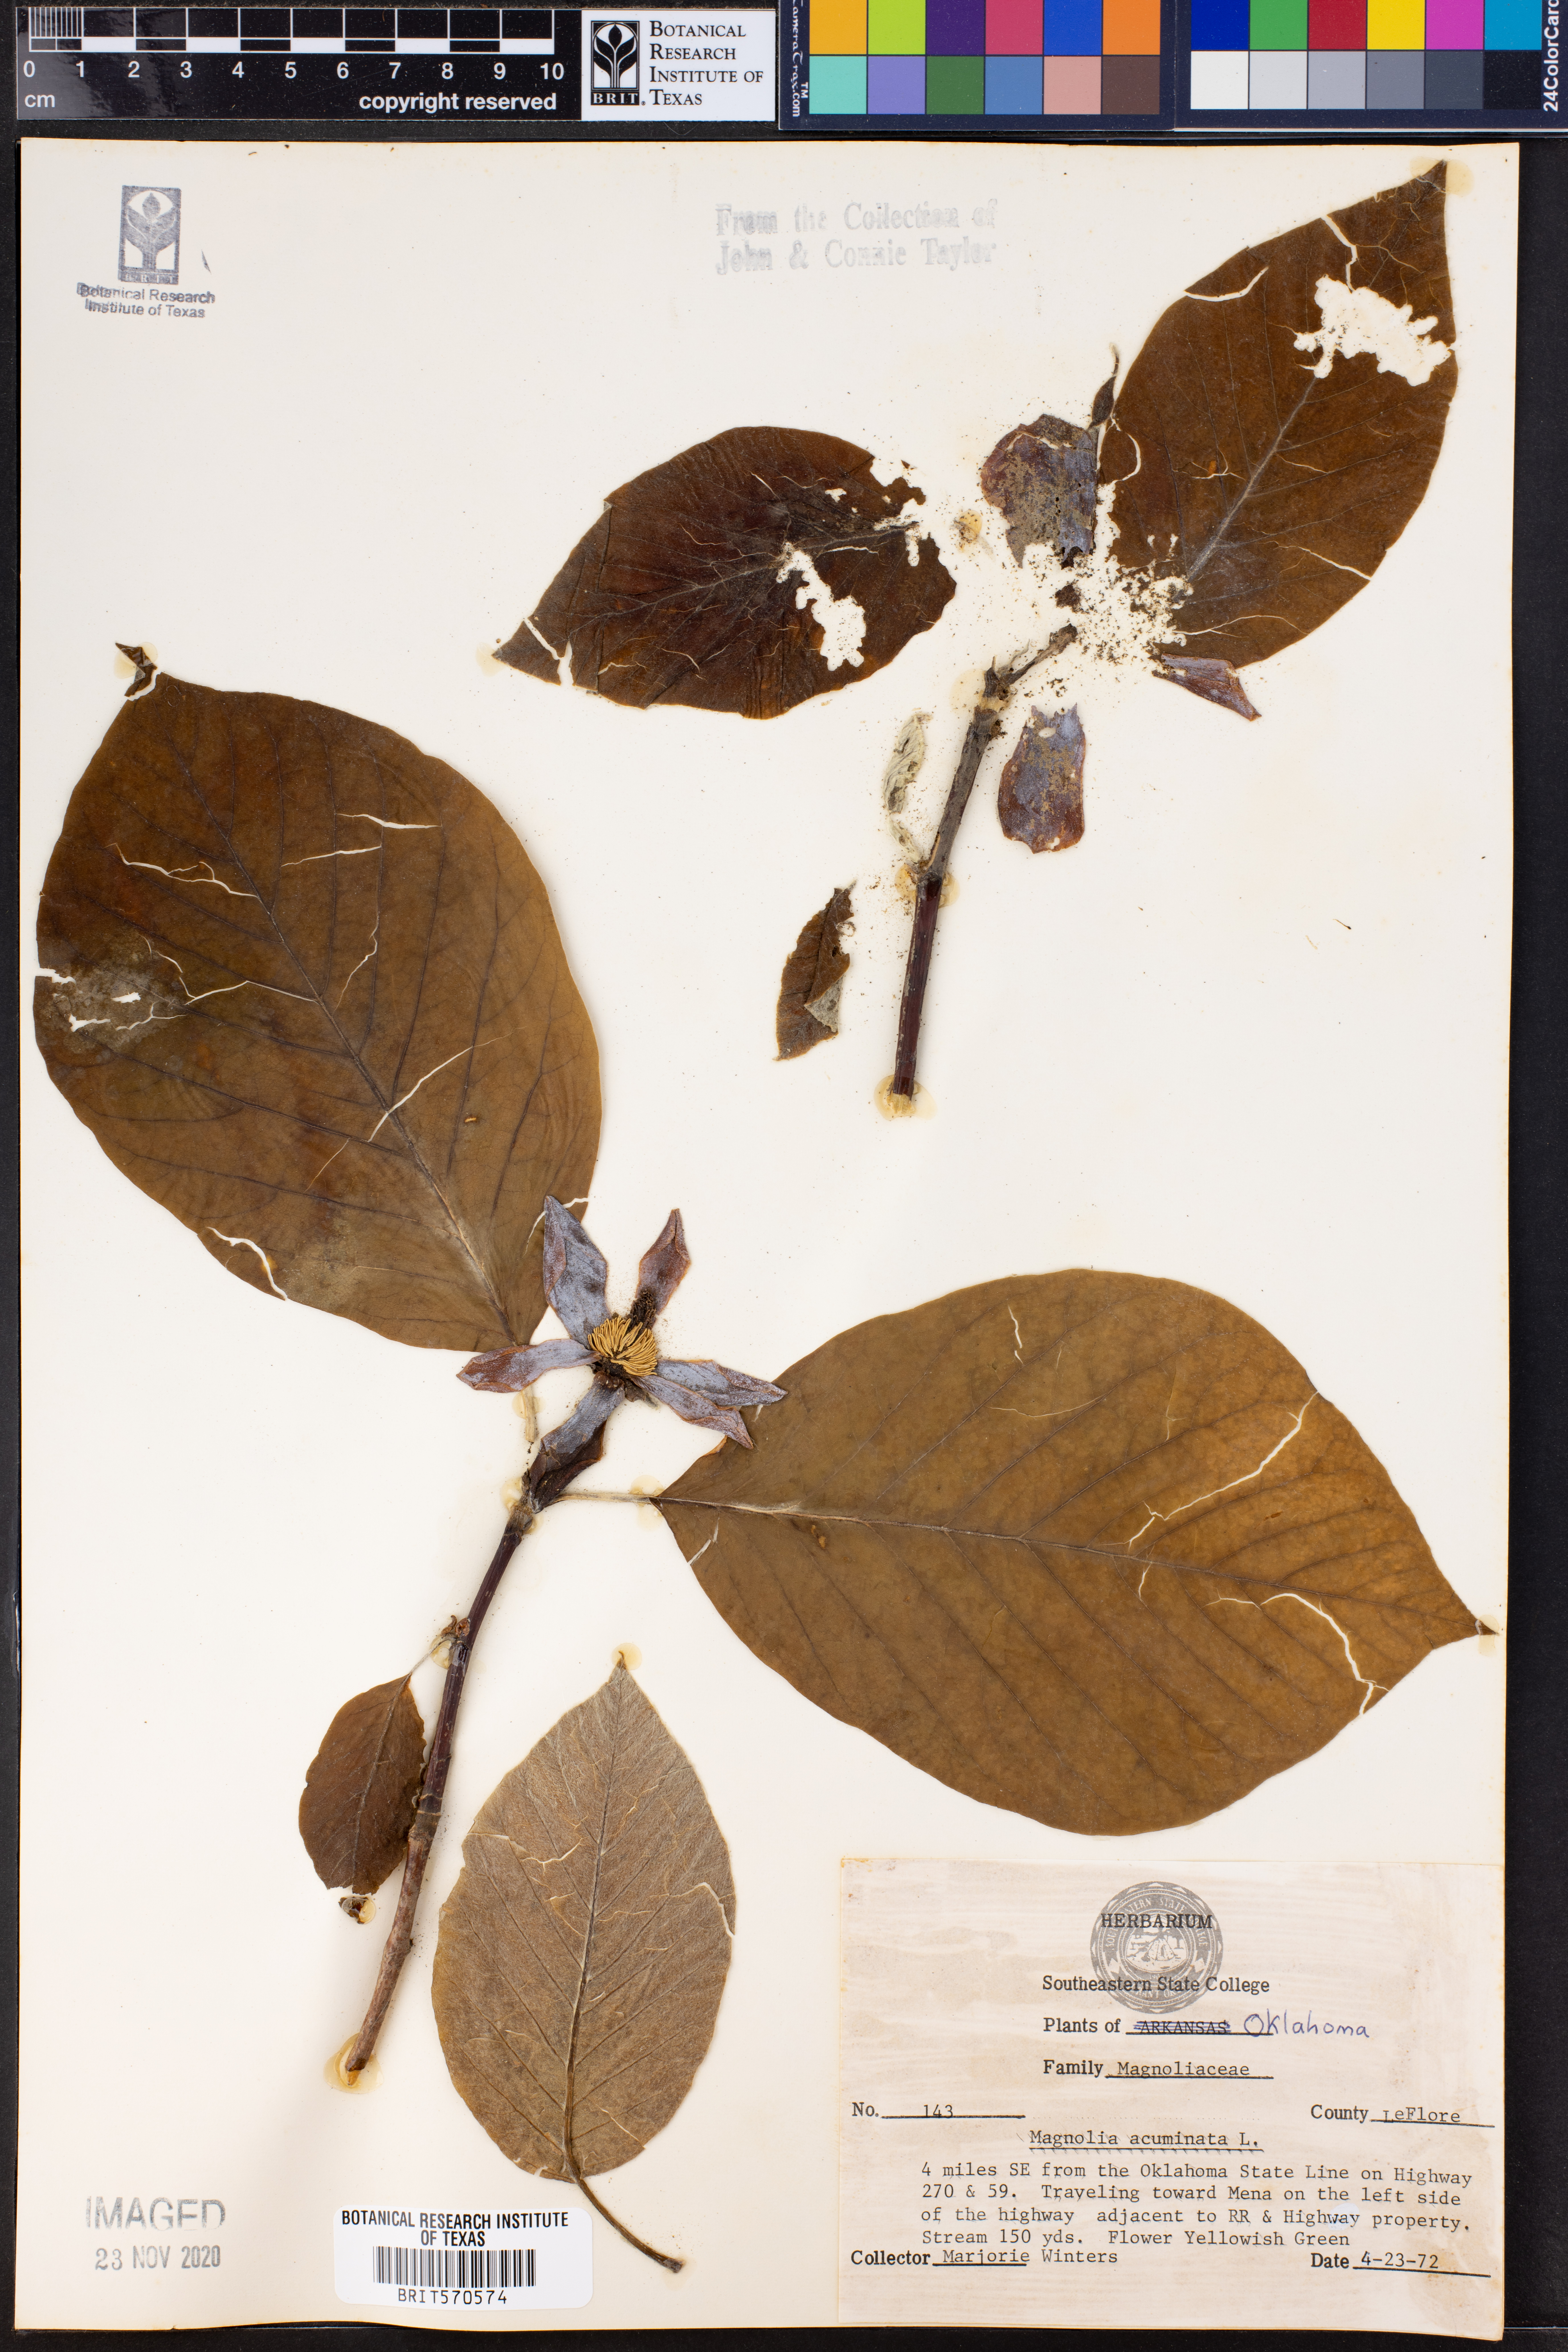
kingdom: Plantae
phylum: Tracheophyta
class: Magnoliopsida
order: Magnoliales
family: Magnoliaceae
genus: Magnolia
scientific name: Magnolia acuminata
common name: Cucumber magnolia
